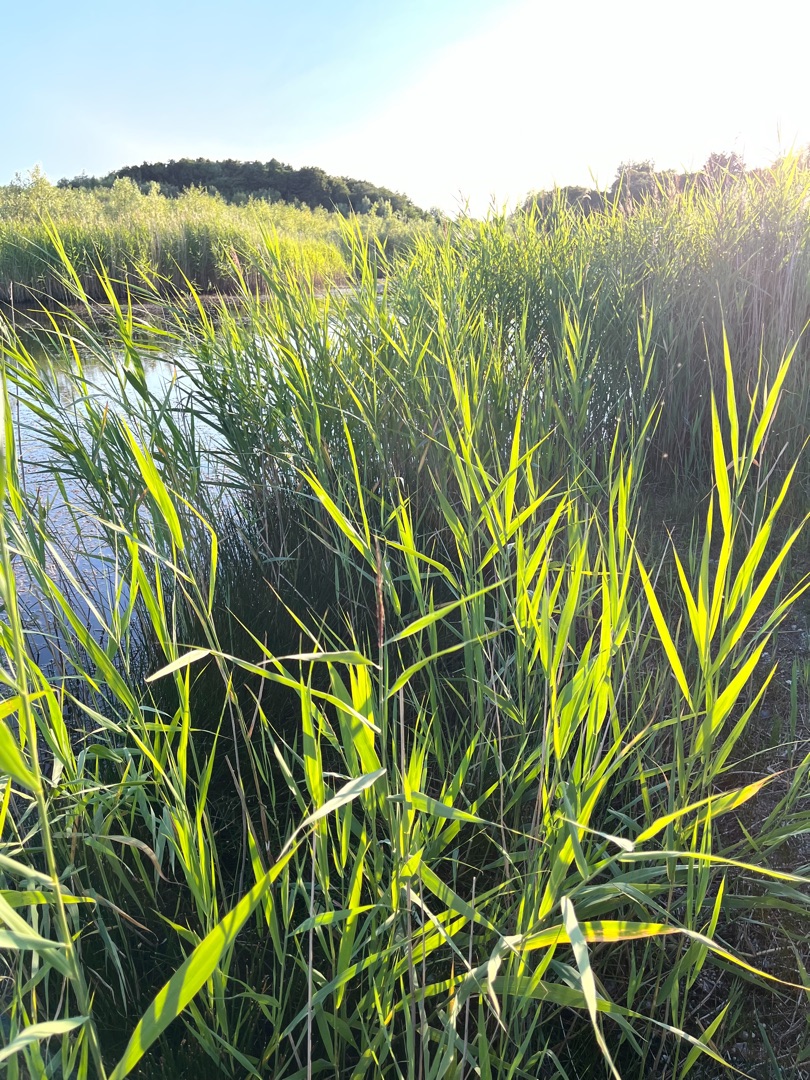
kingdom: Plantae
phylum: Tracheophyta
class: Liliopsida
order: Poales
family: Poaceae
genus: Phragmites
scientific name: Phragmites australis
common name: Tagrør
